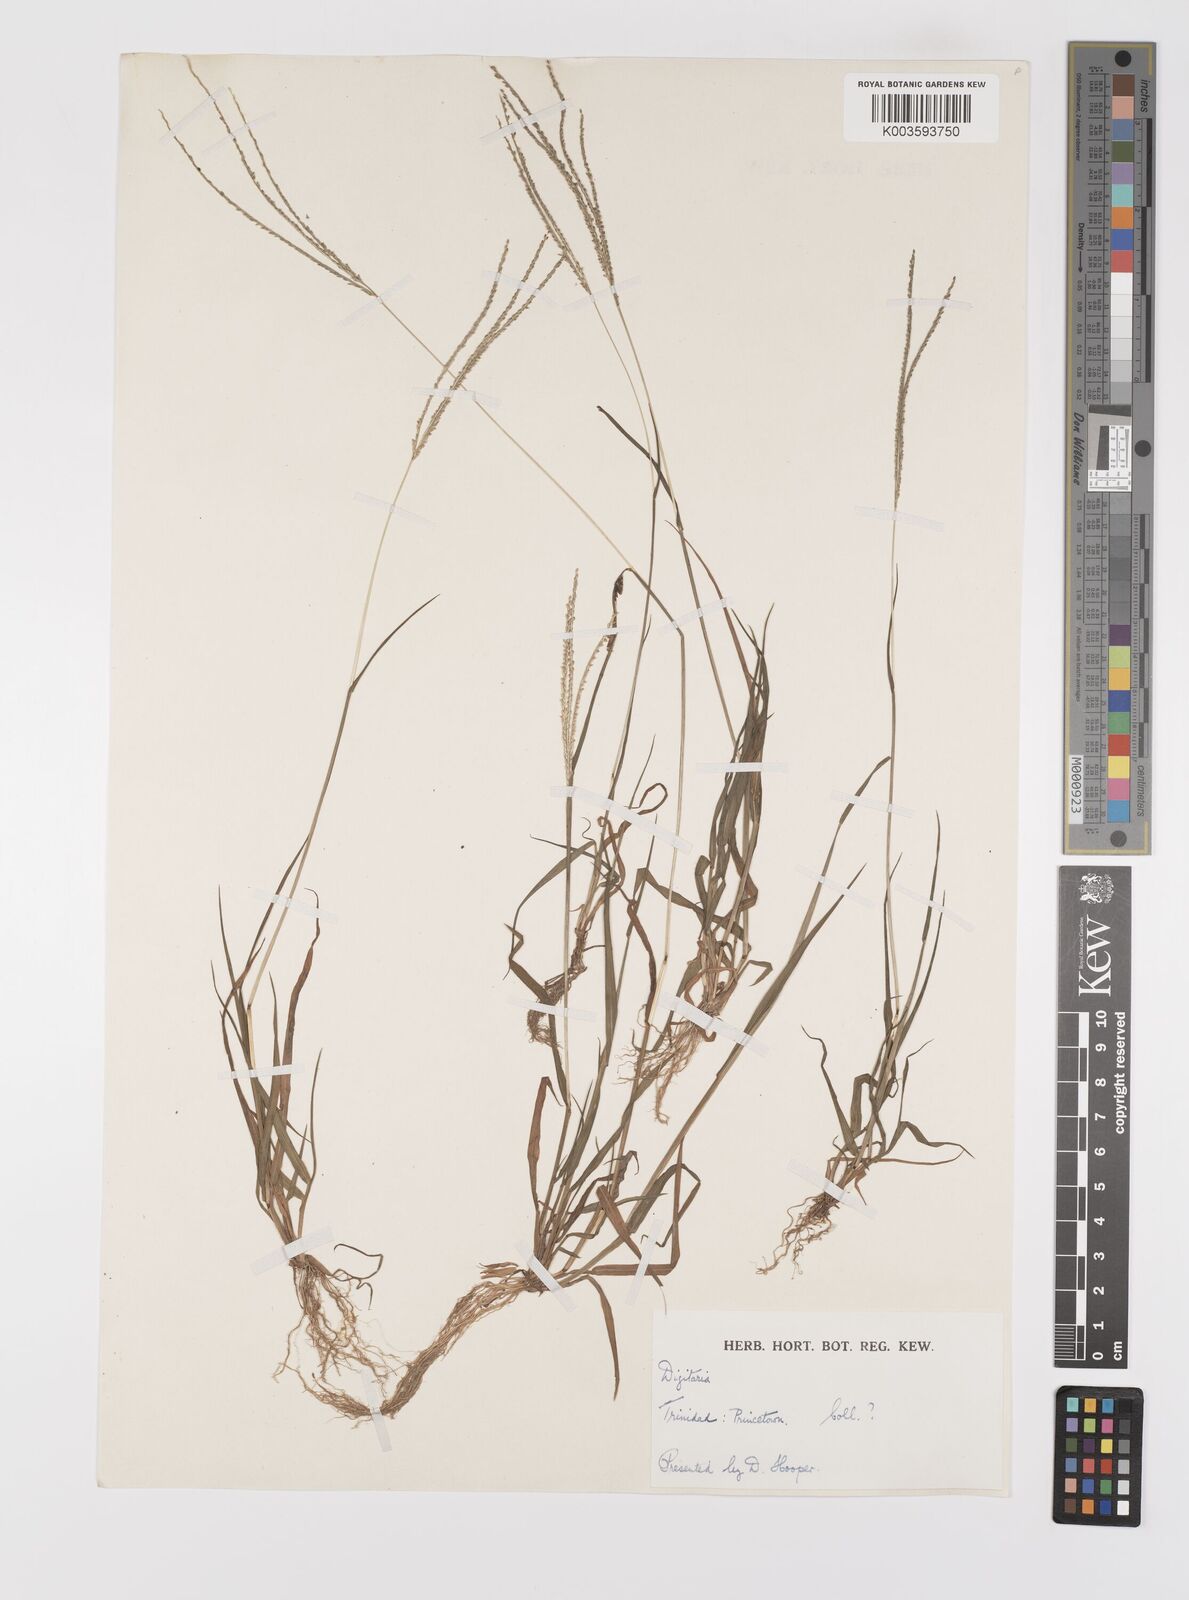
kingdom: Plantae
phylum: Tracheophyta
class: Liliopsida
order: Poales
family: Poaceae
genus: Digitaria
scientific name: Digitaria violascens
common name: Violet crabgrass
